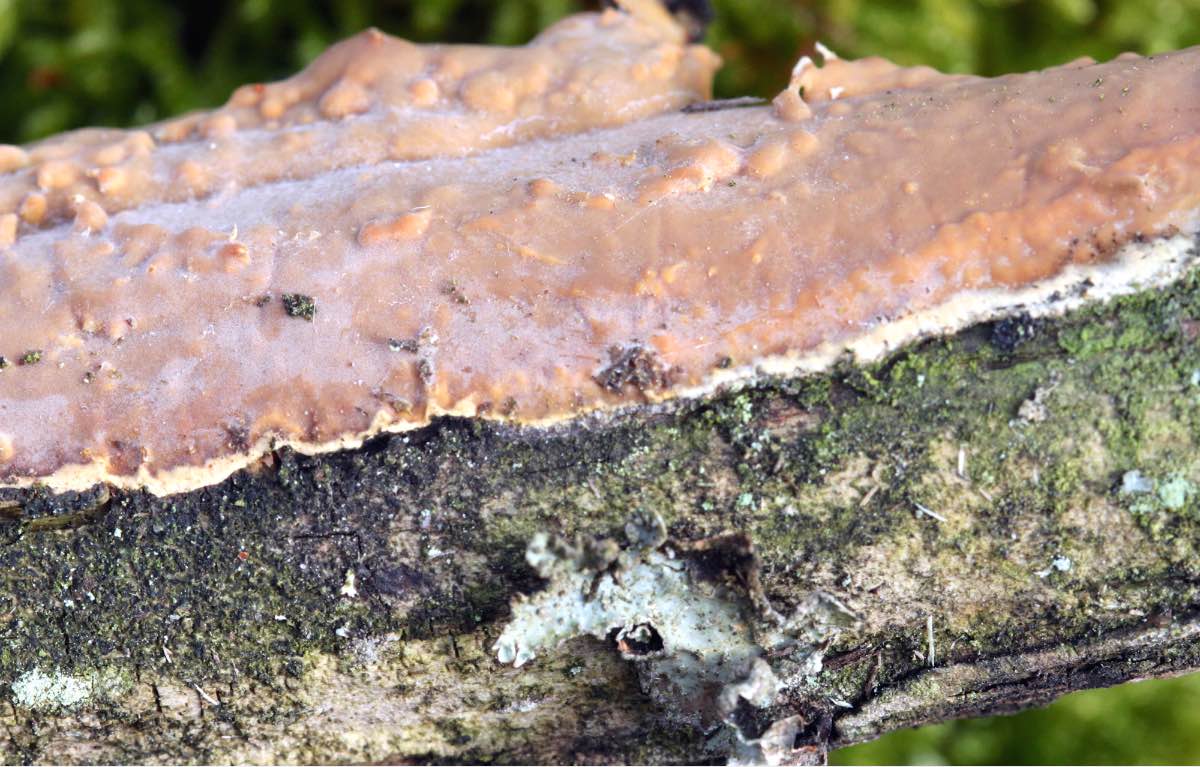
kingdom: Fungi
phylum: Basidiomycota
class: Agaricomycetes
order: Russulales
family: Peniophoraceae
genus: Scytinostroma
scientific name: Scytinostroma hemidichophyticum
